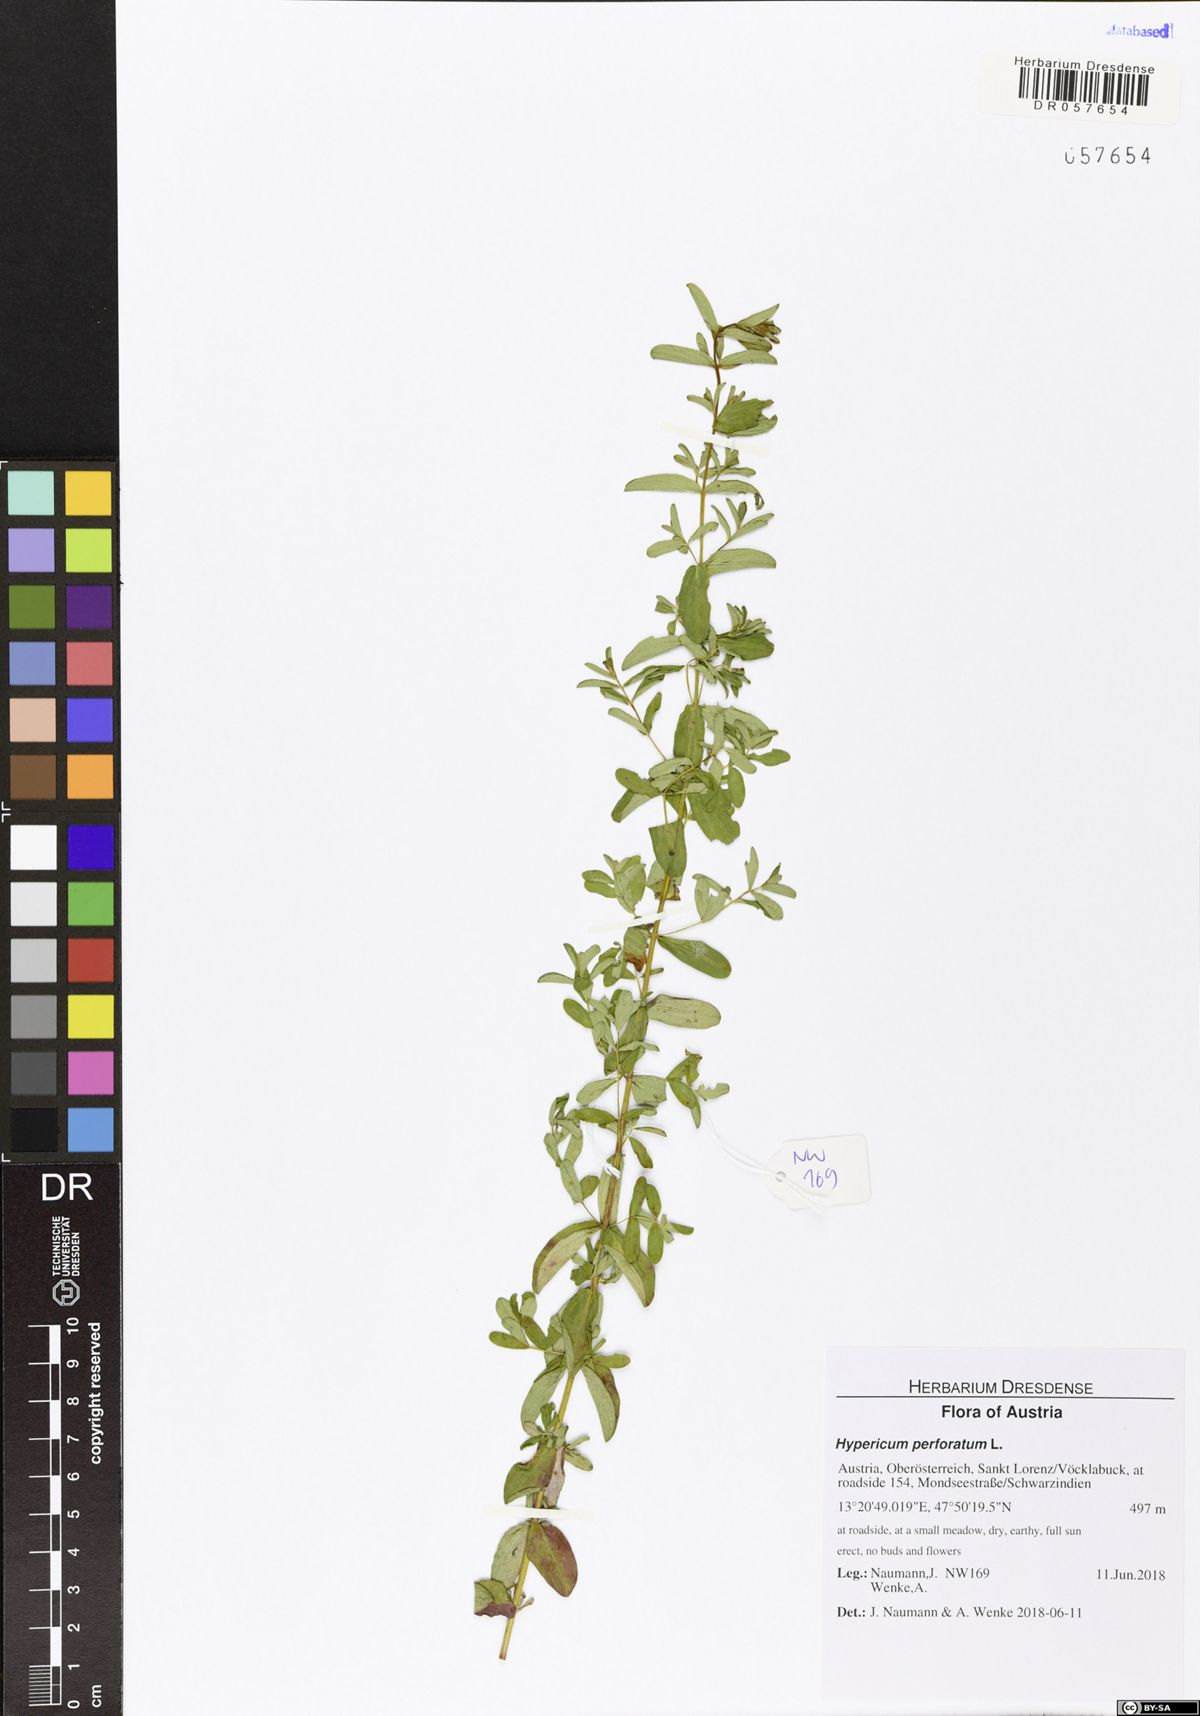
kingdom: Plantae
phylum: Tracheophyta
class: Magnoliopsida
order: Malpighiales
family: Hypericaceae
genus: Hypericum
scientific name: Hypericum perforatum
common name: Common st. johnswort
